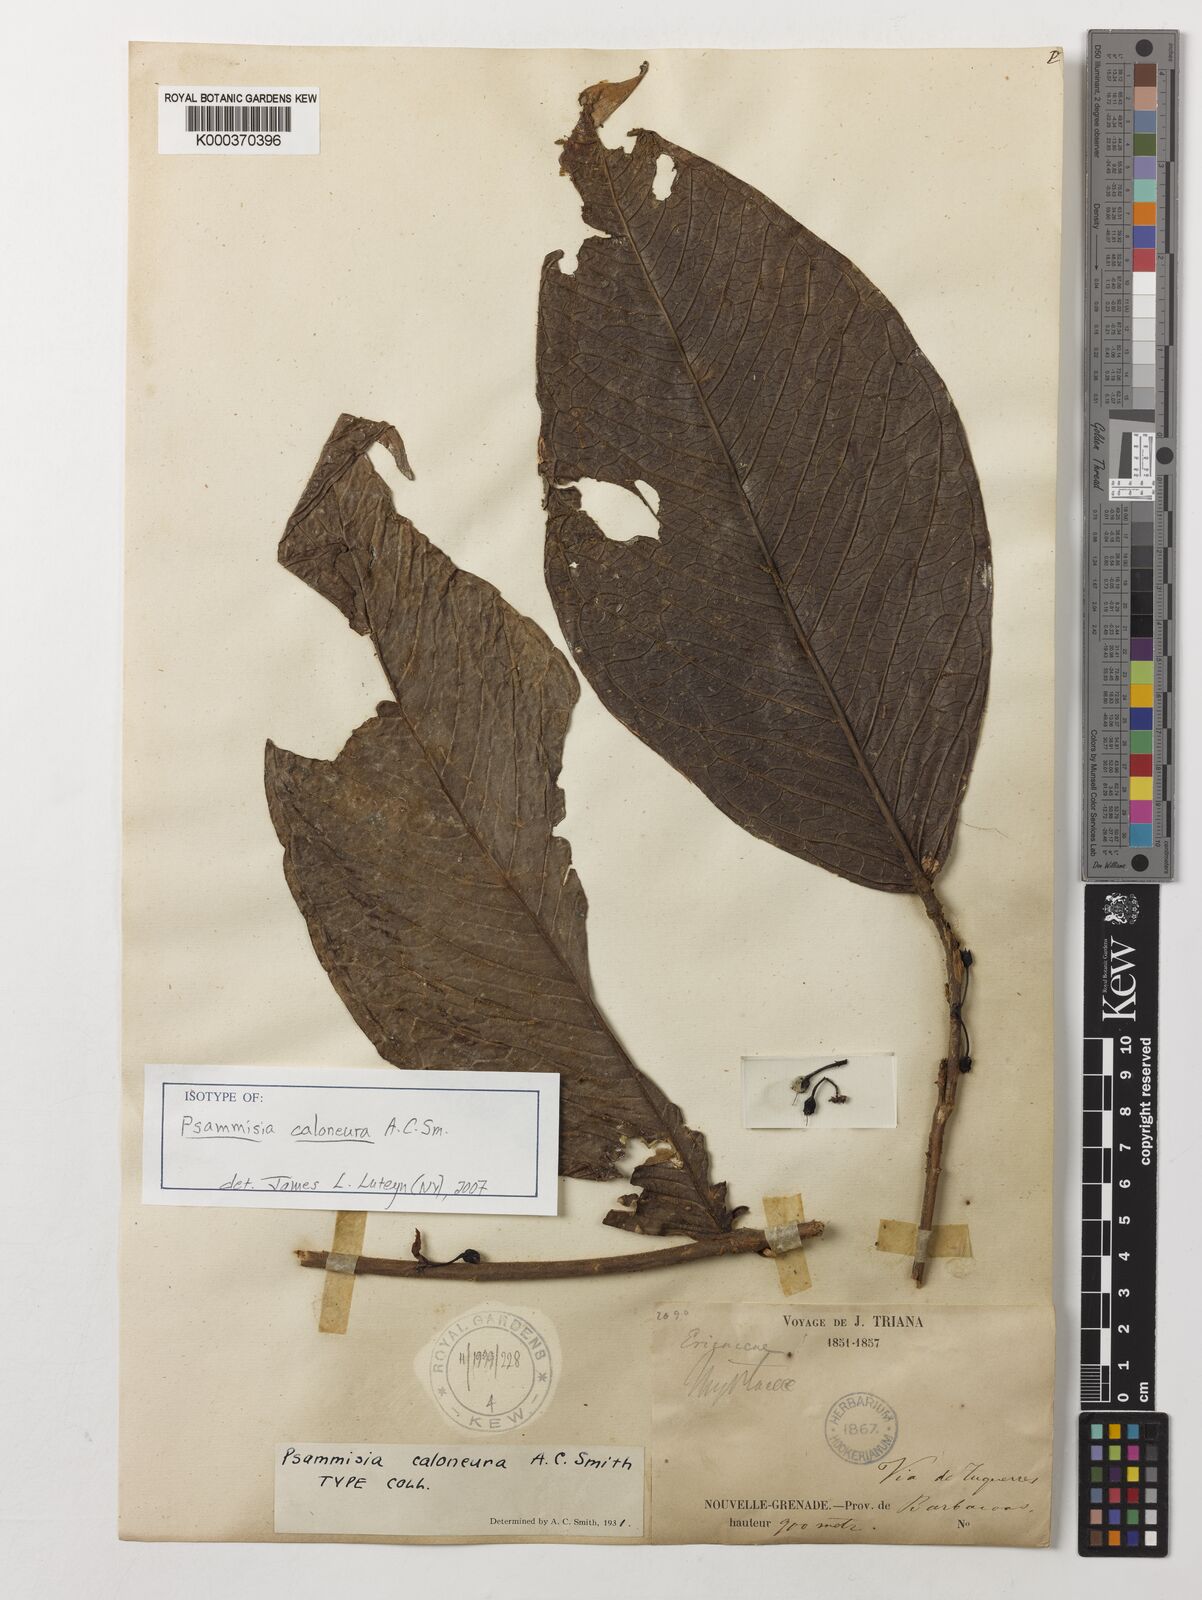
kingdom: Plantae
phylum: Tracheophyta
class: Magnoliopsida
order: Ericales
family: Ericaceae
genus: Psammisia
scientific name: Psammisia caloneura
